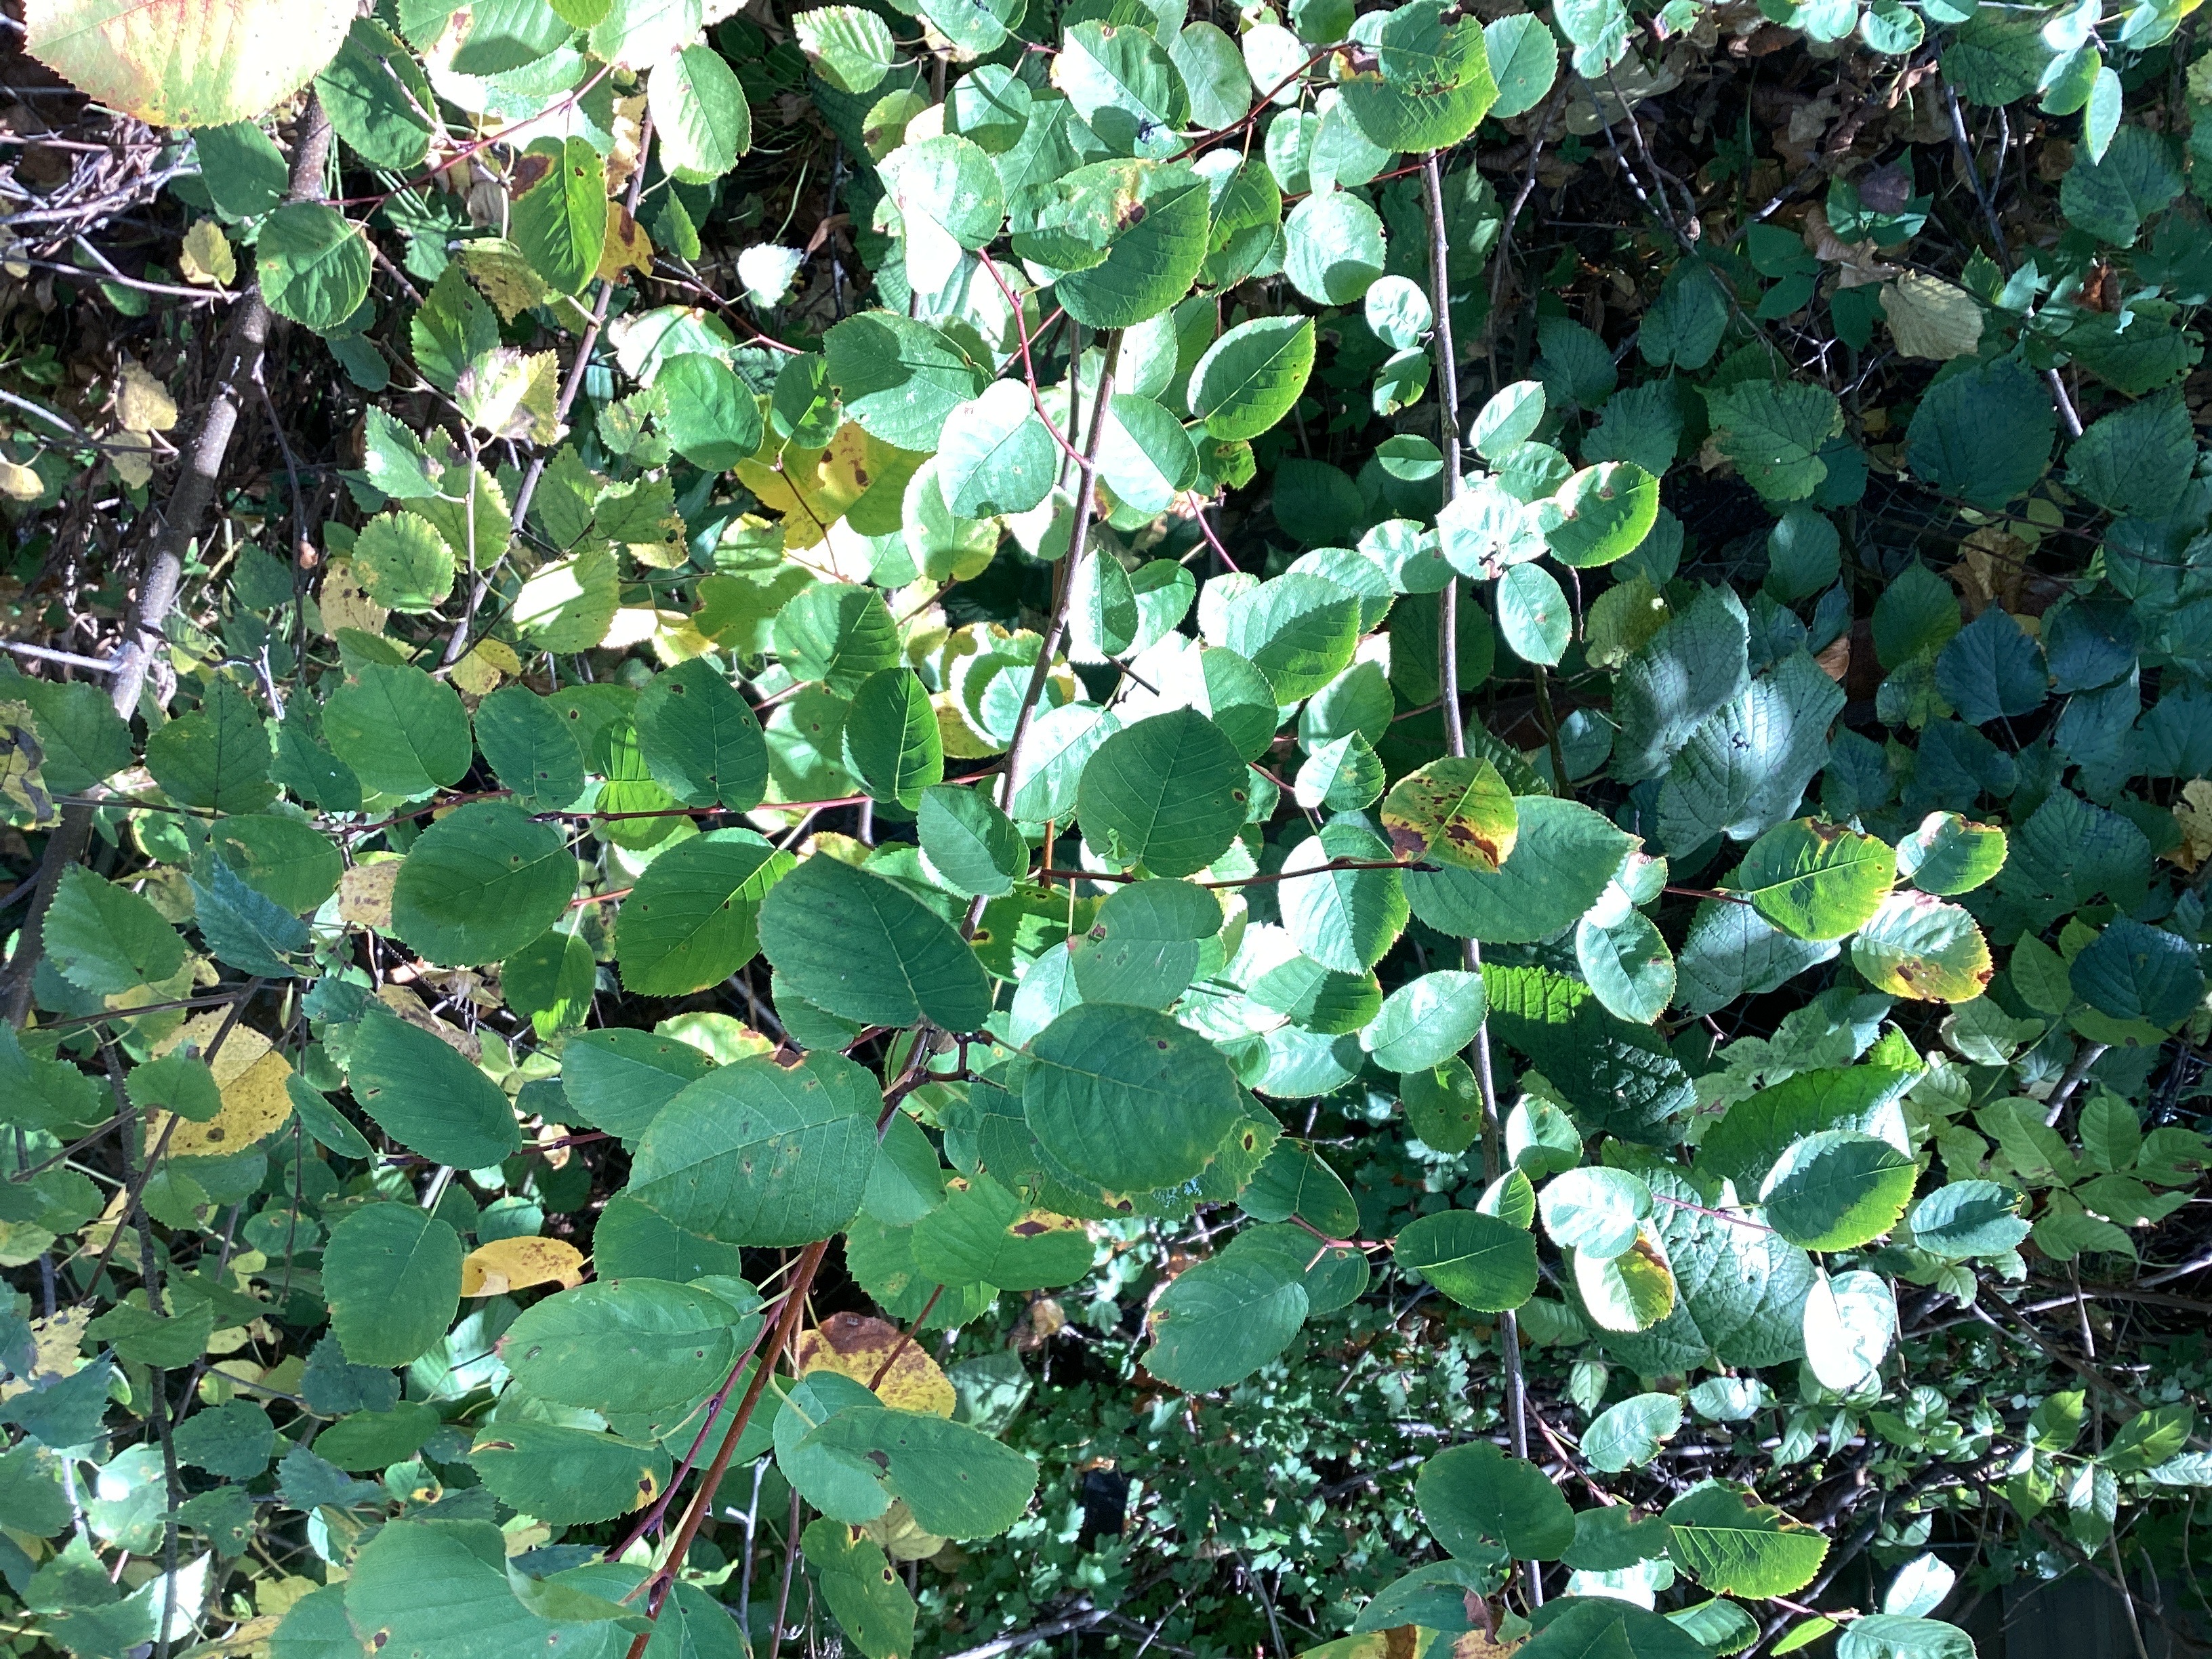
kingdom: Plantae
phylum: Tracheophyta
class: Magnoliopsida
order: Rosales
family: Rosaceae
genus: Amelanchier
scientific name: Amelanchier humilis
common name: blåhegg
